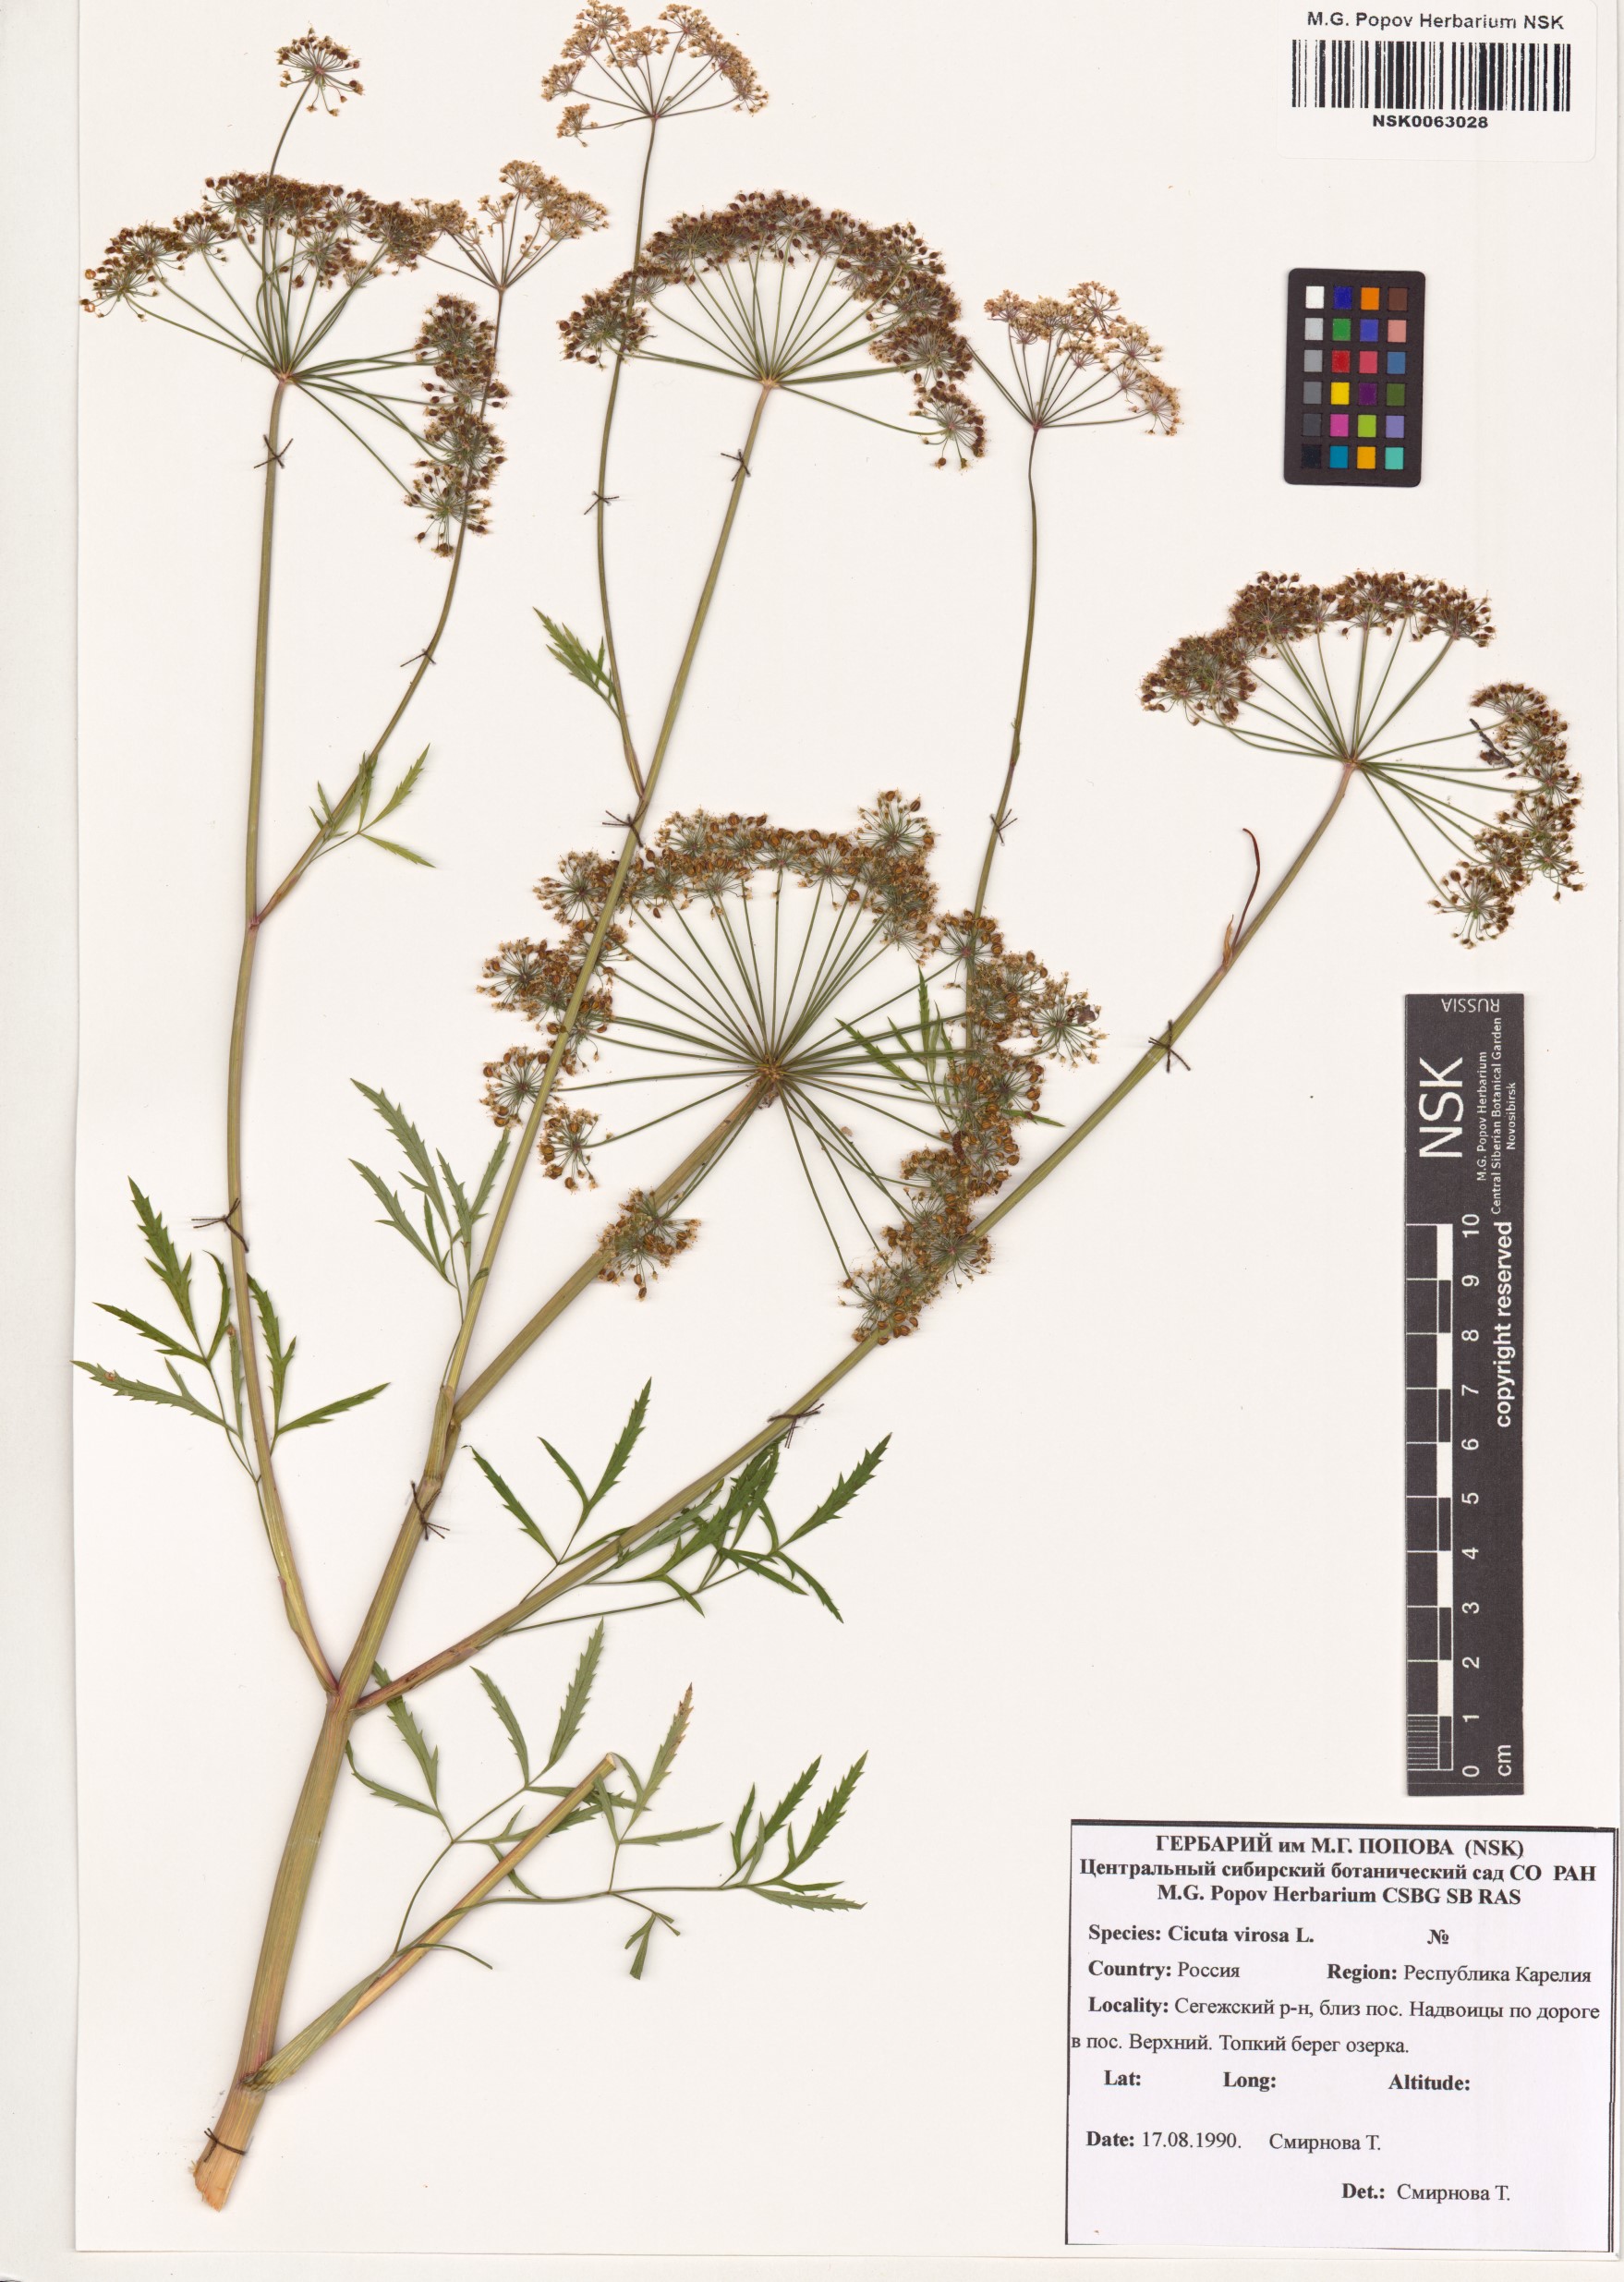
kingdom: Plantae
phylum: Tracheophyta
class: Magnoliopsida
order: Apiales
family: Apiaceae
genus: Cicuta
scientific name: Cicuta virosa
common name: Cowbane
